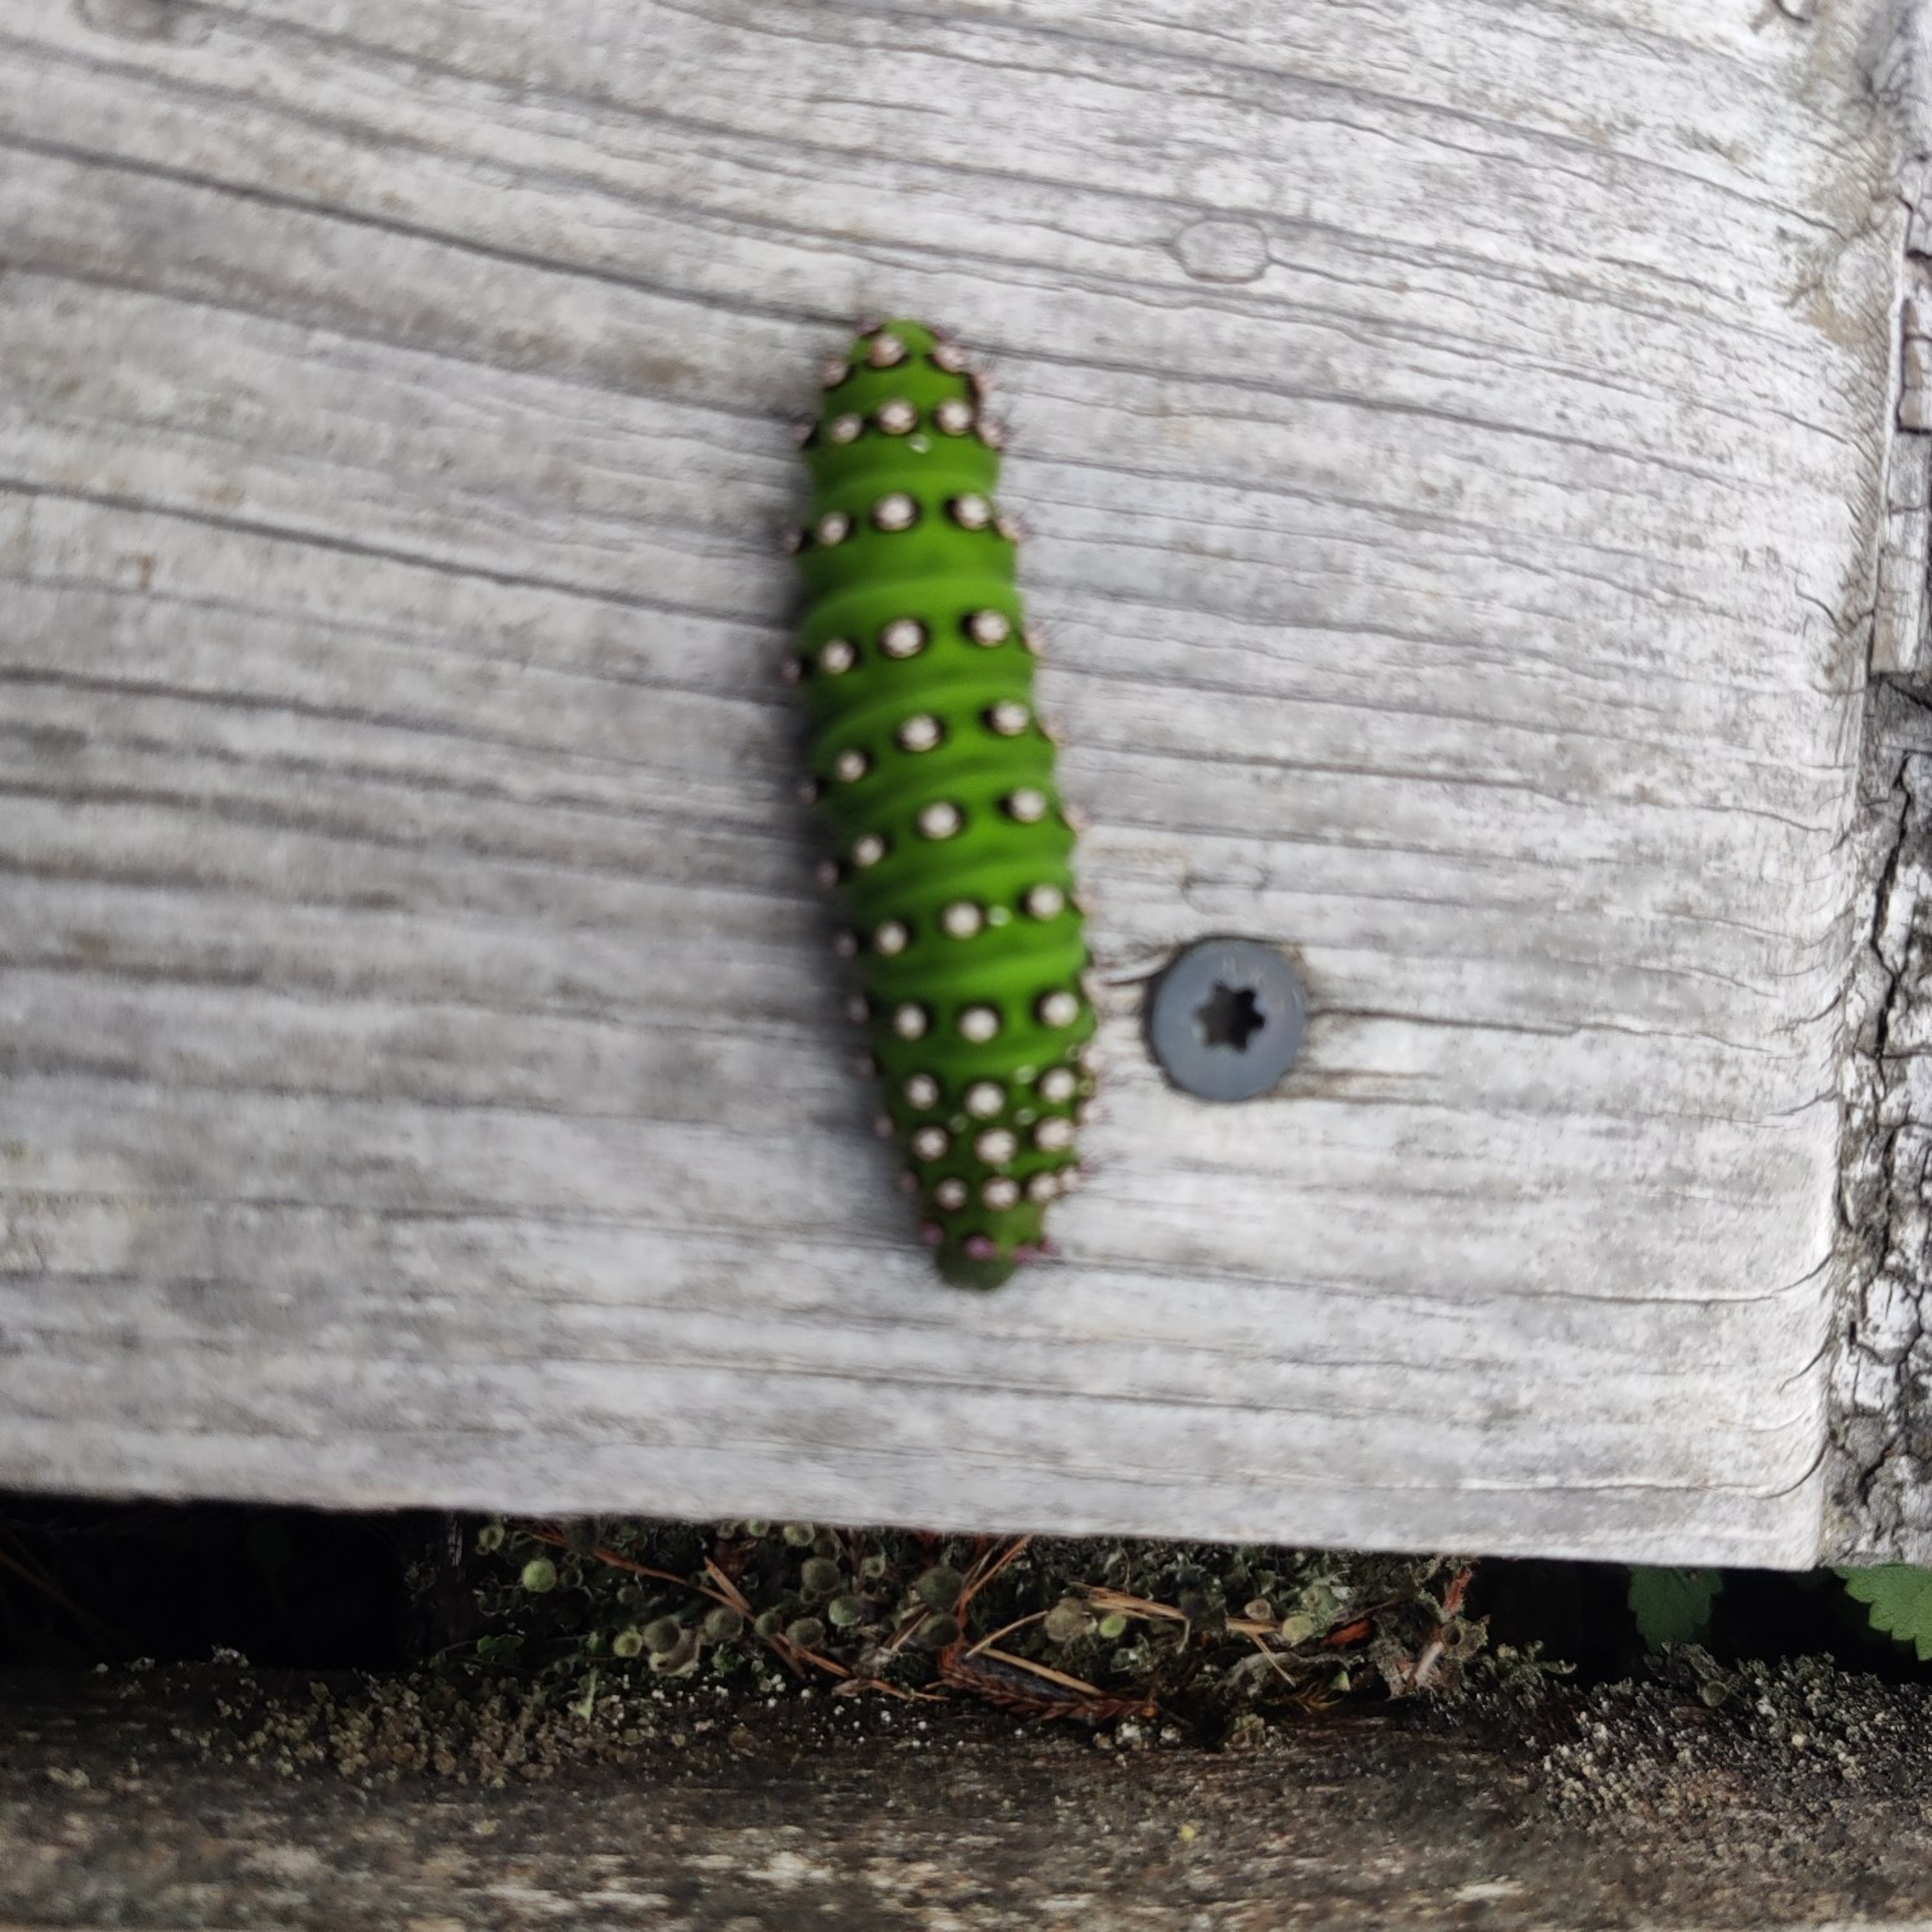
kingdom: Animalia
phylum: Arthropoda
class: Insecta
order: Lepidoptera
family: Saturniidae
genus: Saturnia
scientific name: Saturnia pavonia
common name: Lille natpåfugleøje
